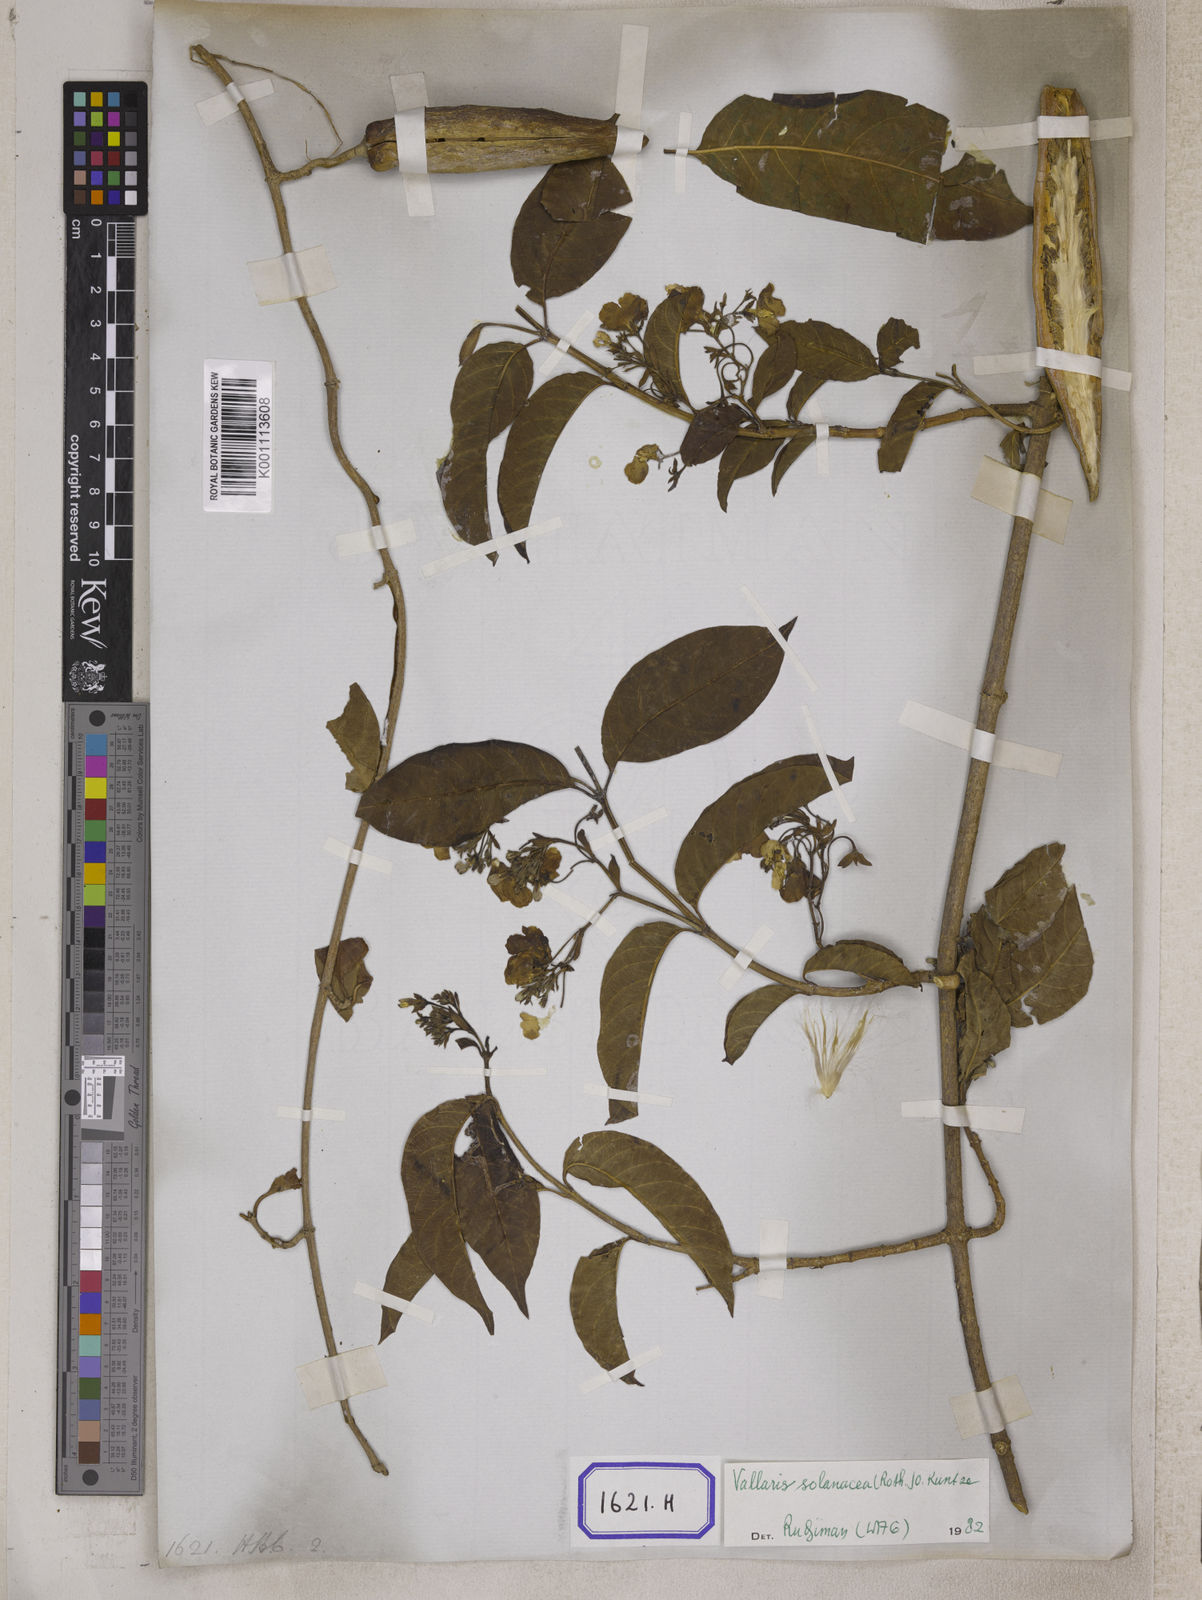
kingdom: Plantae
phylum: Tracheophyta
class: Magnoliopsida
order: Gentianales
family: Apocynaceae
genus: Vallaris
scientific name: Vallaris glabra
